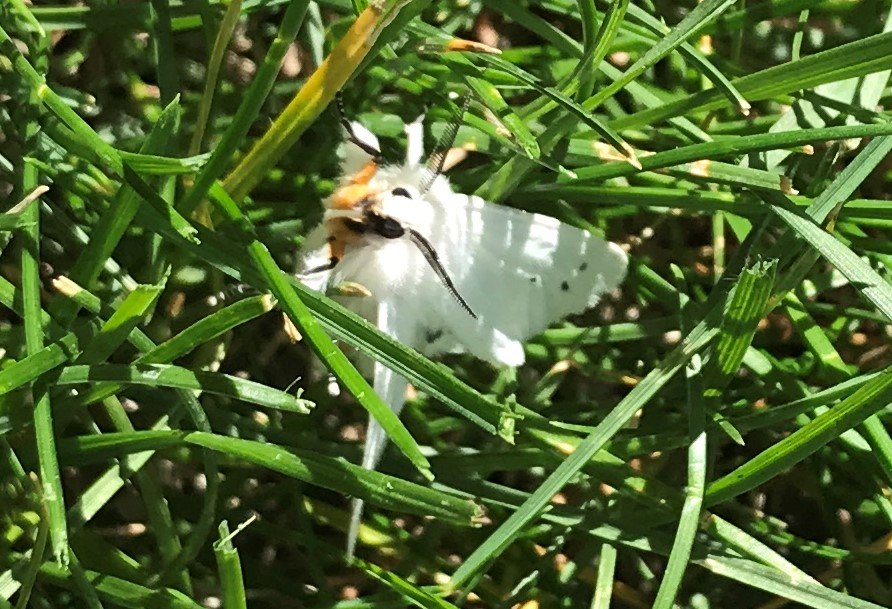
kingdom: Animalia
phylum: Arthropoda
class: Insecta
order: Lepidoptera
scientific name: Lepidoptera
